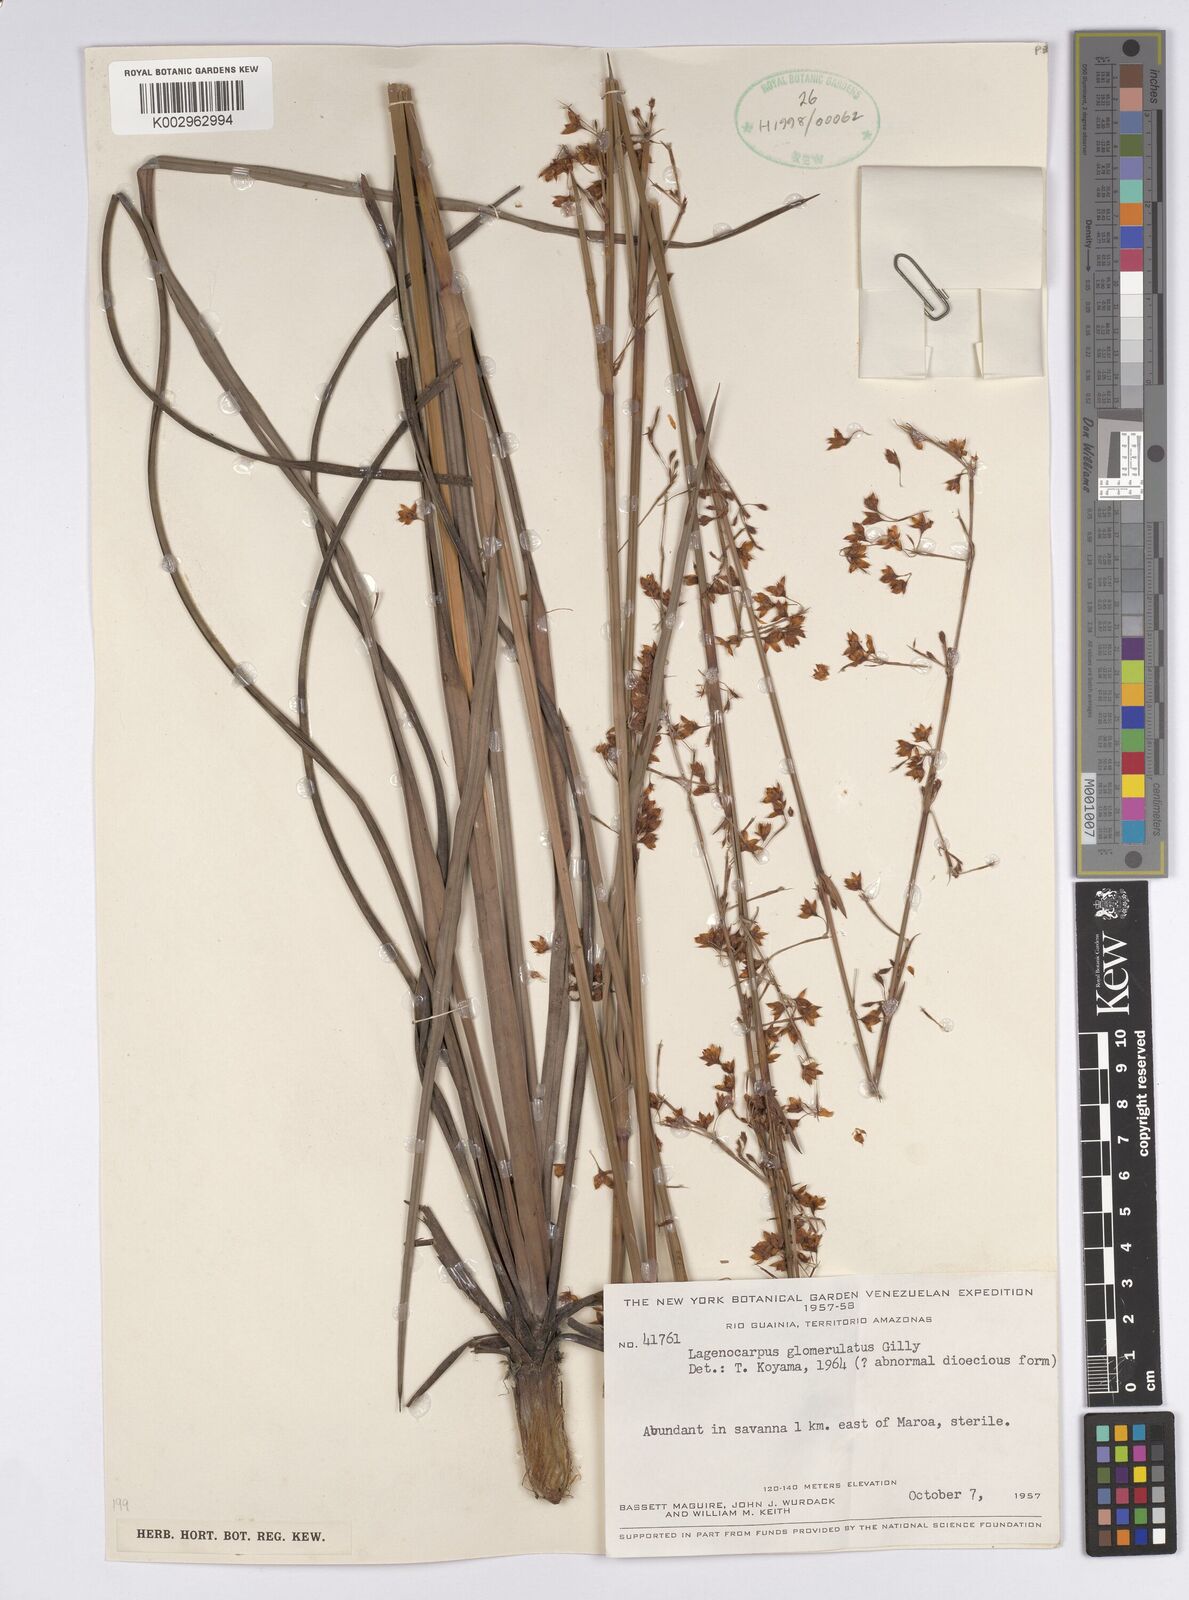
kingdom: Plantae
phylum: Tracheophyta
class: Liliopsida
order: Poales
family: Cyperaceae
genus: Lagenocarpus
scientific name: Lagenocarpus glomerulatus
